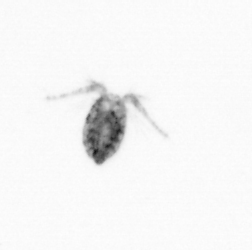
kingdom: Animalia
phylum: Arthropoda
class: Copepoda
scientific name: Copepoda
